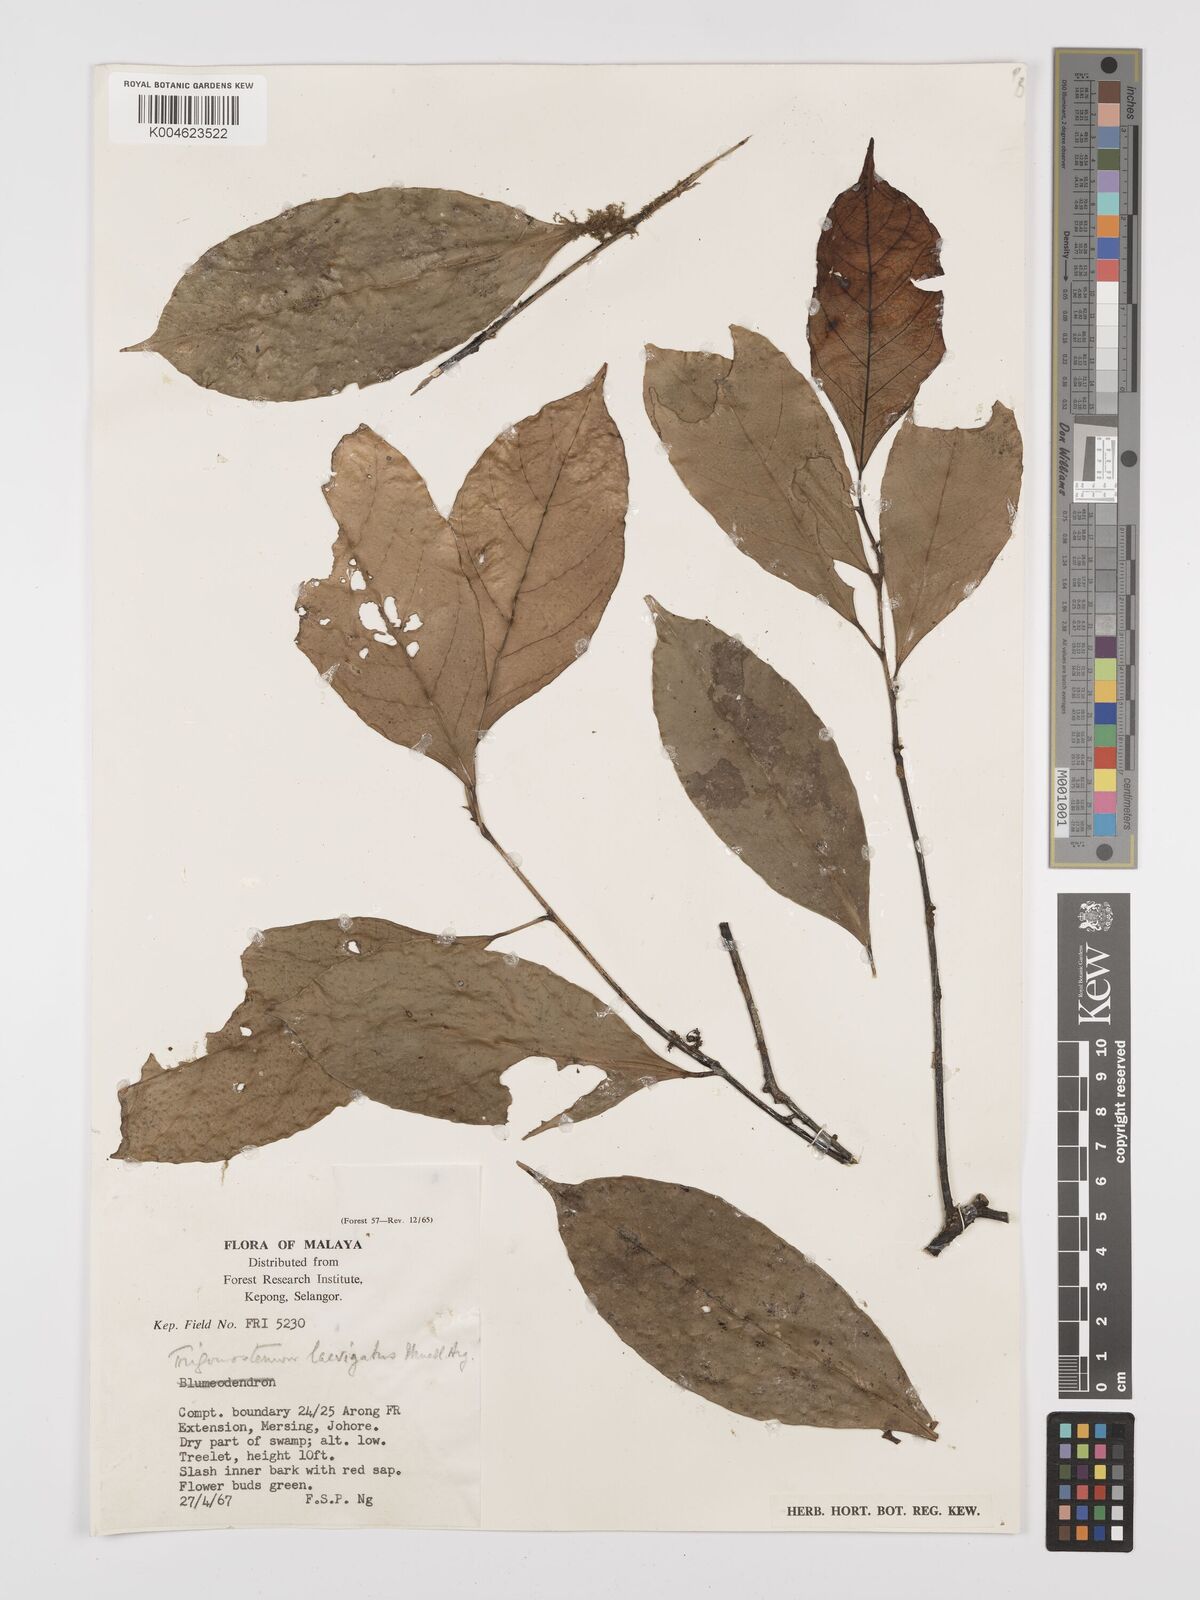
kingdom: Plantae
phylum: Tracheophyta
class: Magnoliopsida
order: Malpighiales
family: Euphorbiaceae
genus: Trigonostemon
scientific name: Trigonostemon laevigatus
